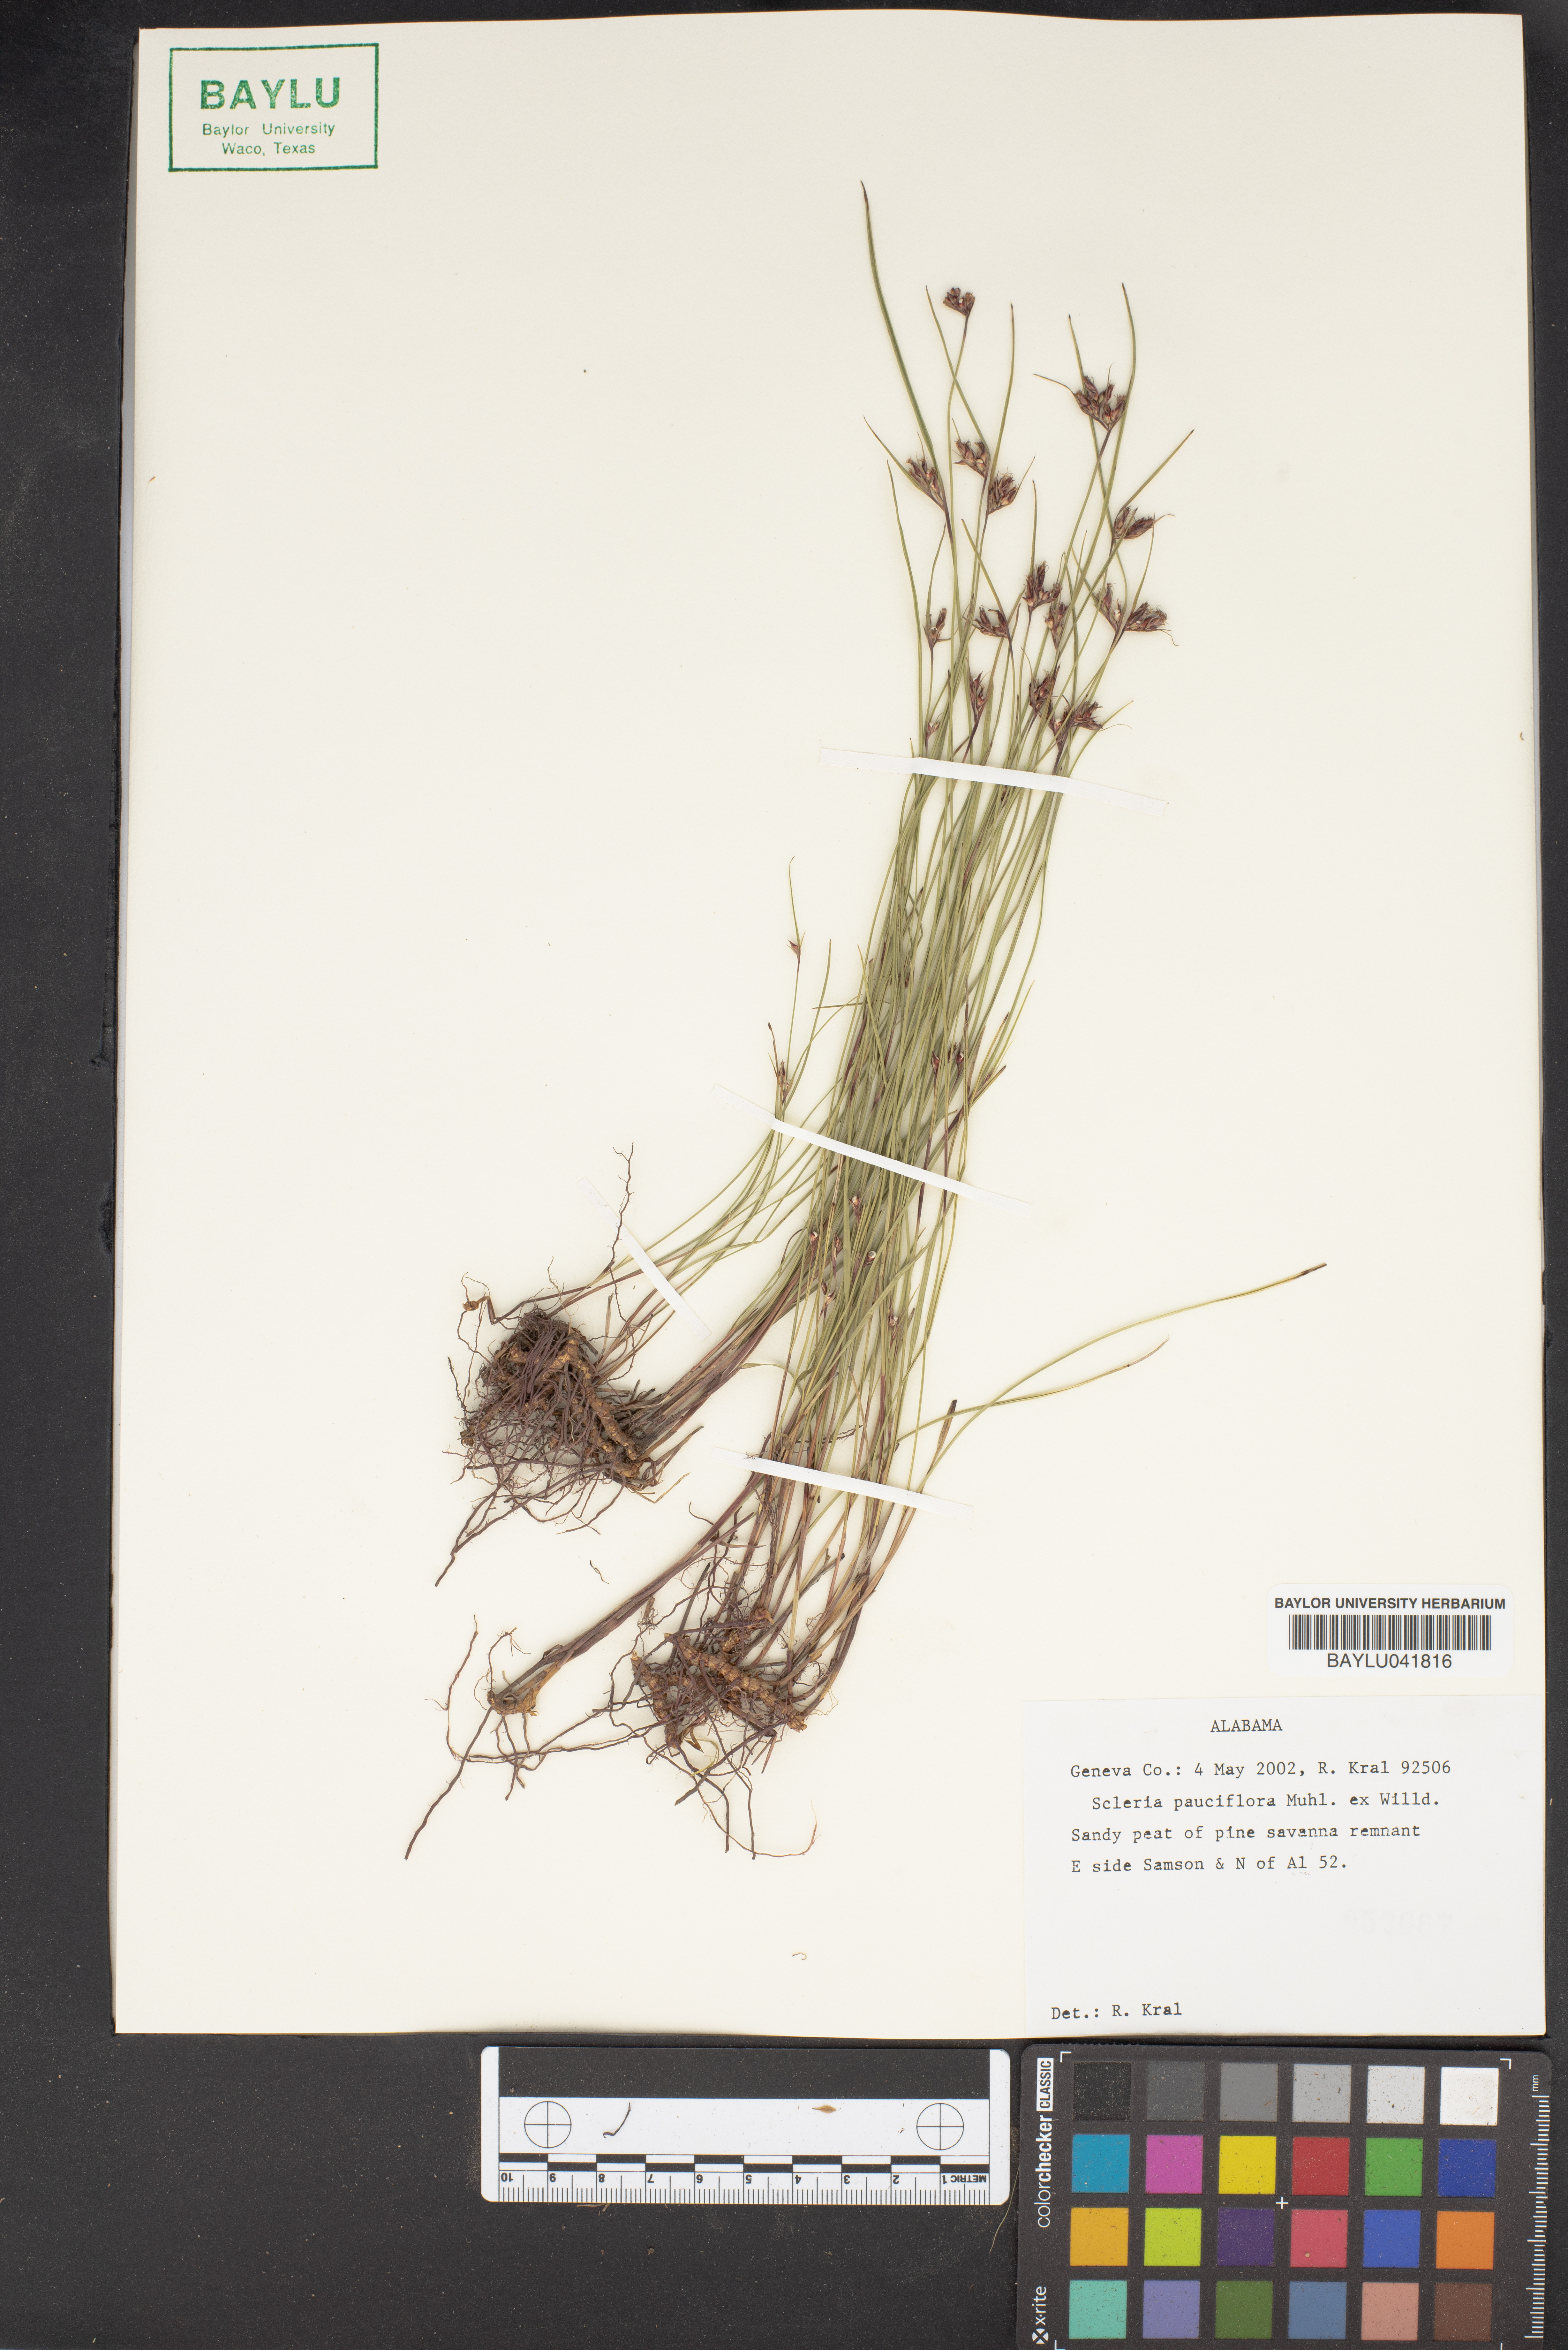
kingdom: Plantae
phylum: Tracheophyta
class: Liliopsida
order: Poales
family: Cyperaceae
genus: Scleria
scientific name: Scleria pauciflora
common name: Few-flowered nutrush
